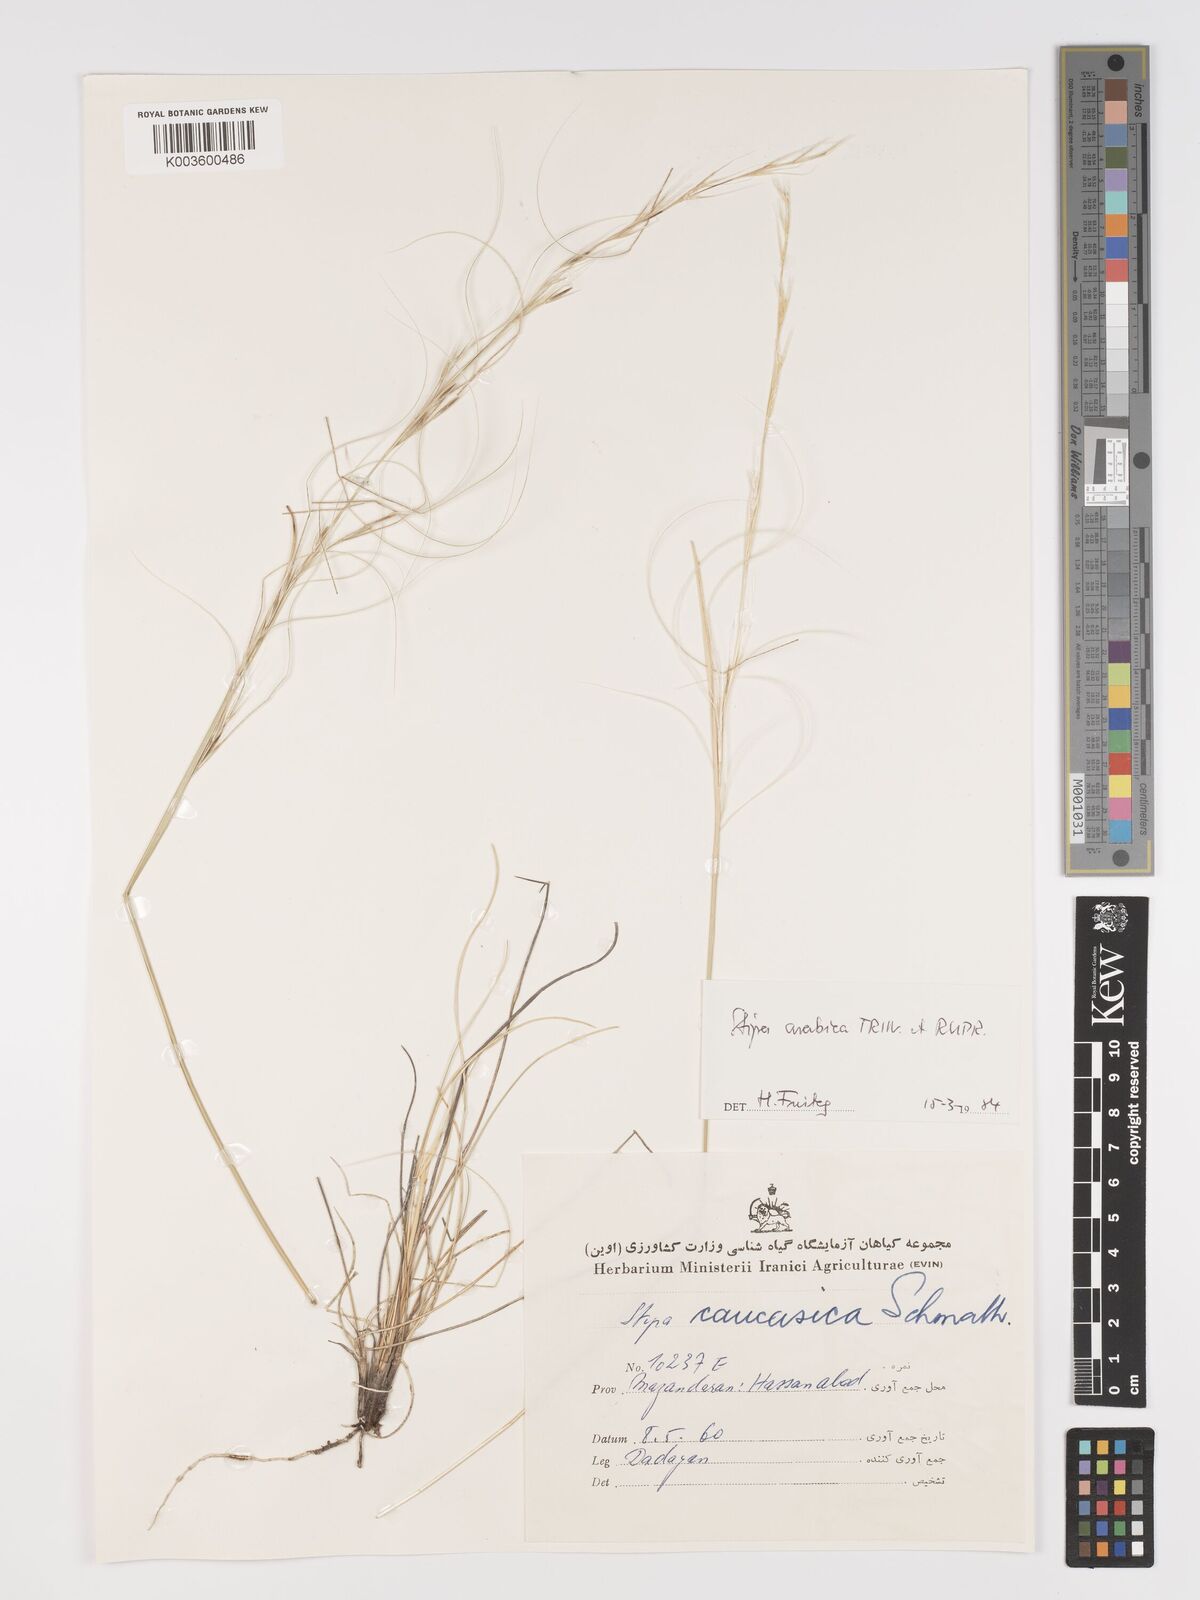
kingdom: Plantae
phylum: Tracheophyta
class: Liliopsida
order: Poales
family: Poaceae
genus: Stipa
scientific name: Stipa arabica
